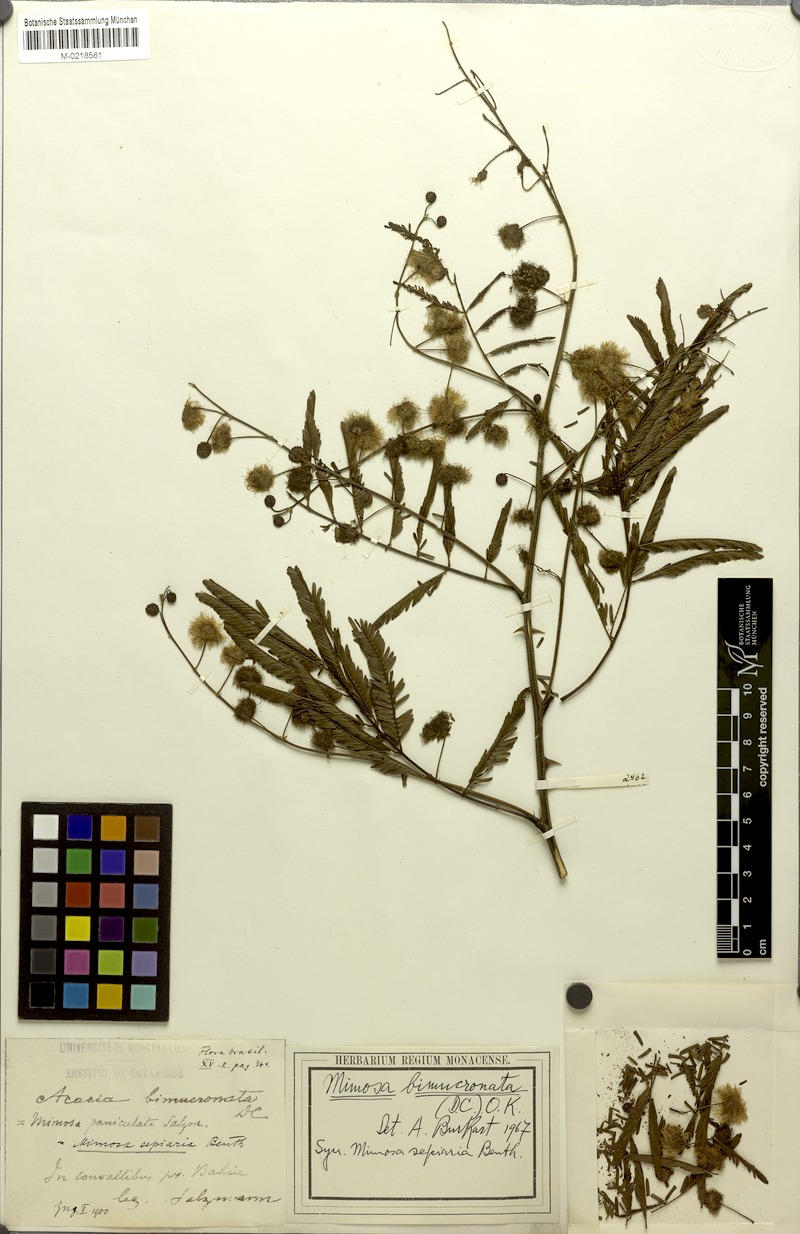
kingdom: Plantae
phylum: Tracheophyta
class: Magnoliopsida
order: Fabales
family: Fabaceae
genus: Mimosa
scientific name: Mimosa bimucronata
